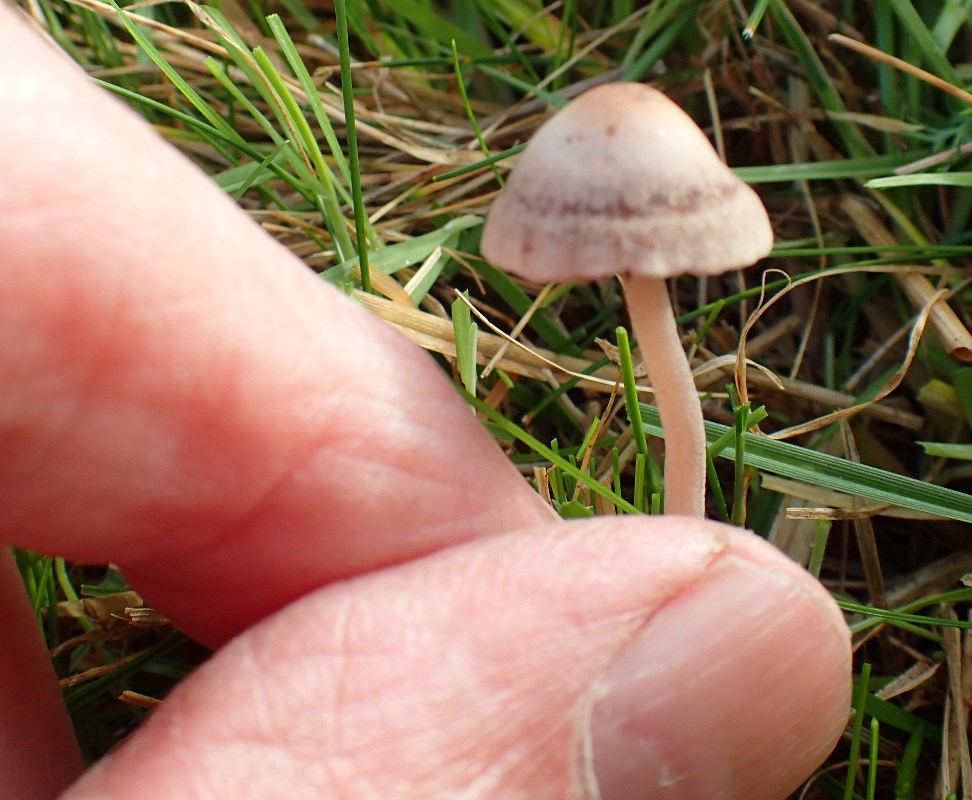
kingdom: Fungi
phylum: Basidiomycota
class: Agaricomycetes
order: Agaricales
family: Bolbitiaceae
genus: Panaeolina
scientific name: Panaeolina foenisecii
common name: høslætsvamp
